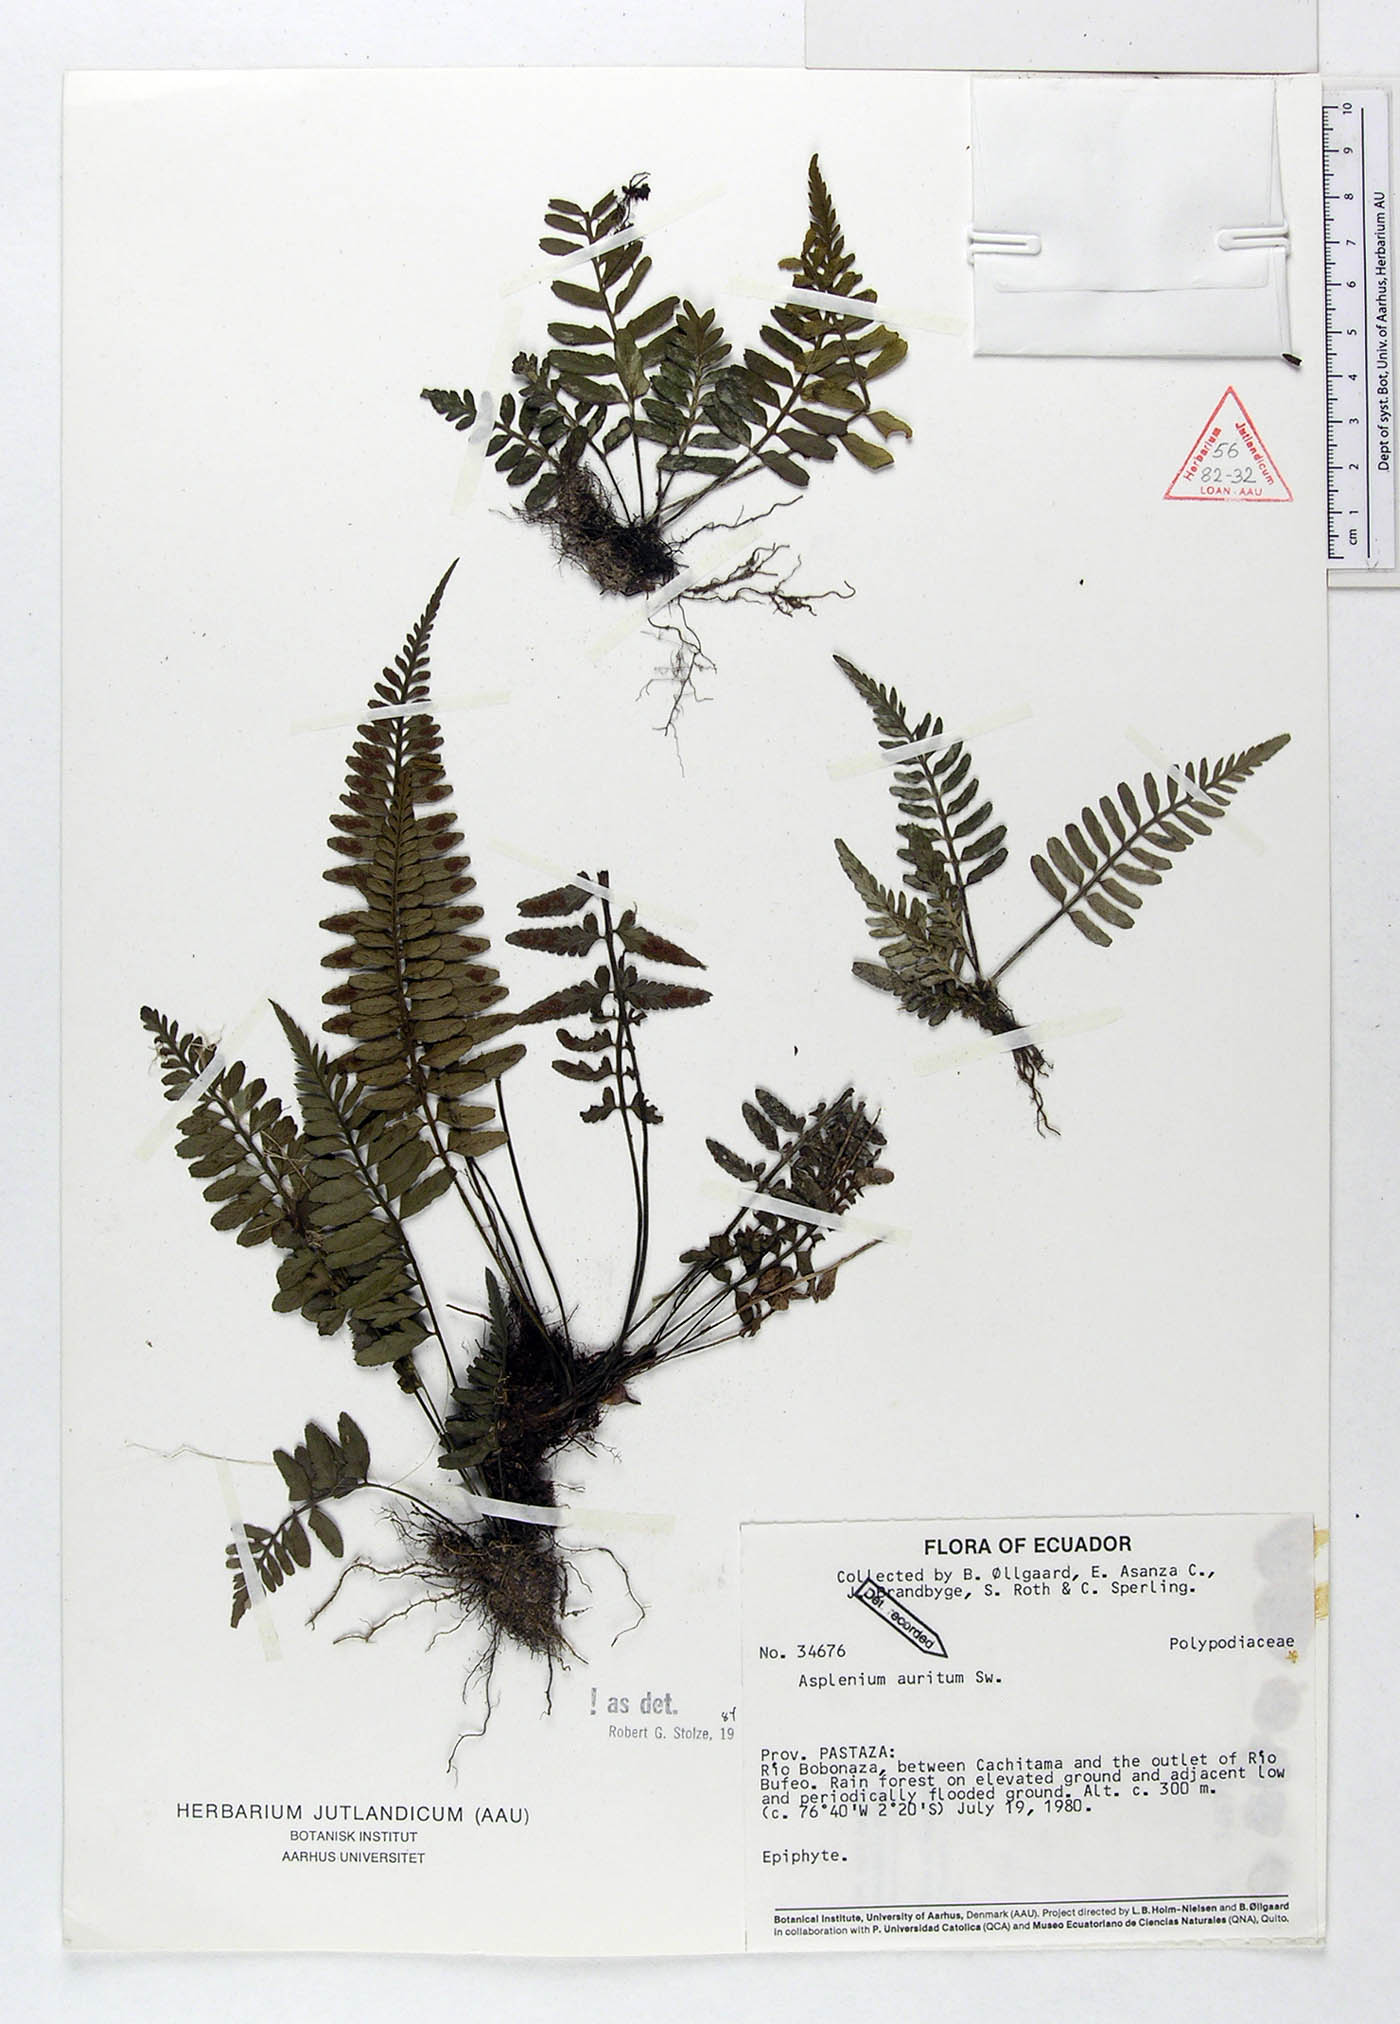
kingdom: Plantae
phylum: Tracheophyta
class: Polypodiopsida
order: Polypodiales
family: Aspleniaceae
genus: Asplenium
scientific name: Asplenium auritum
